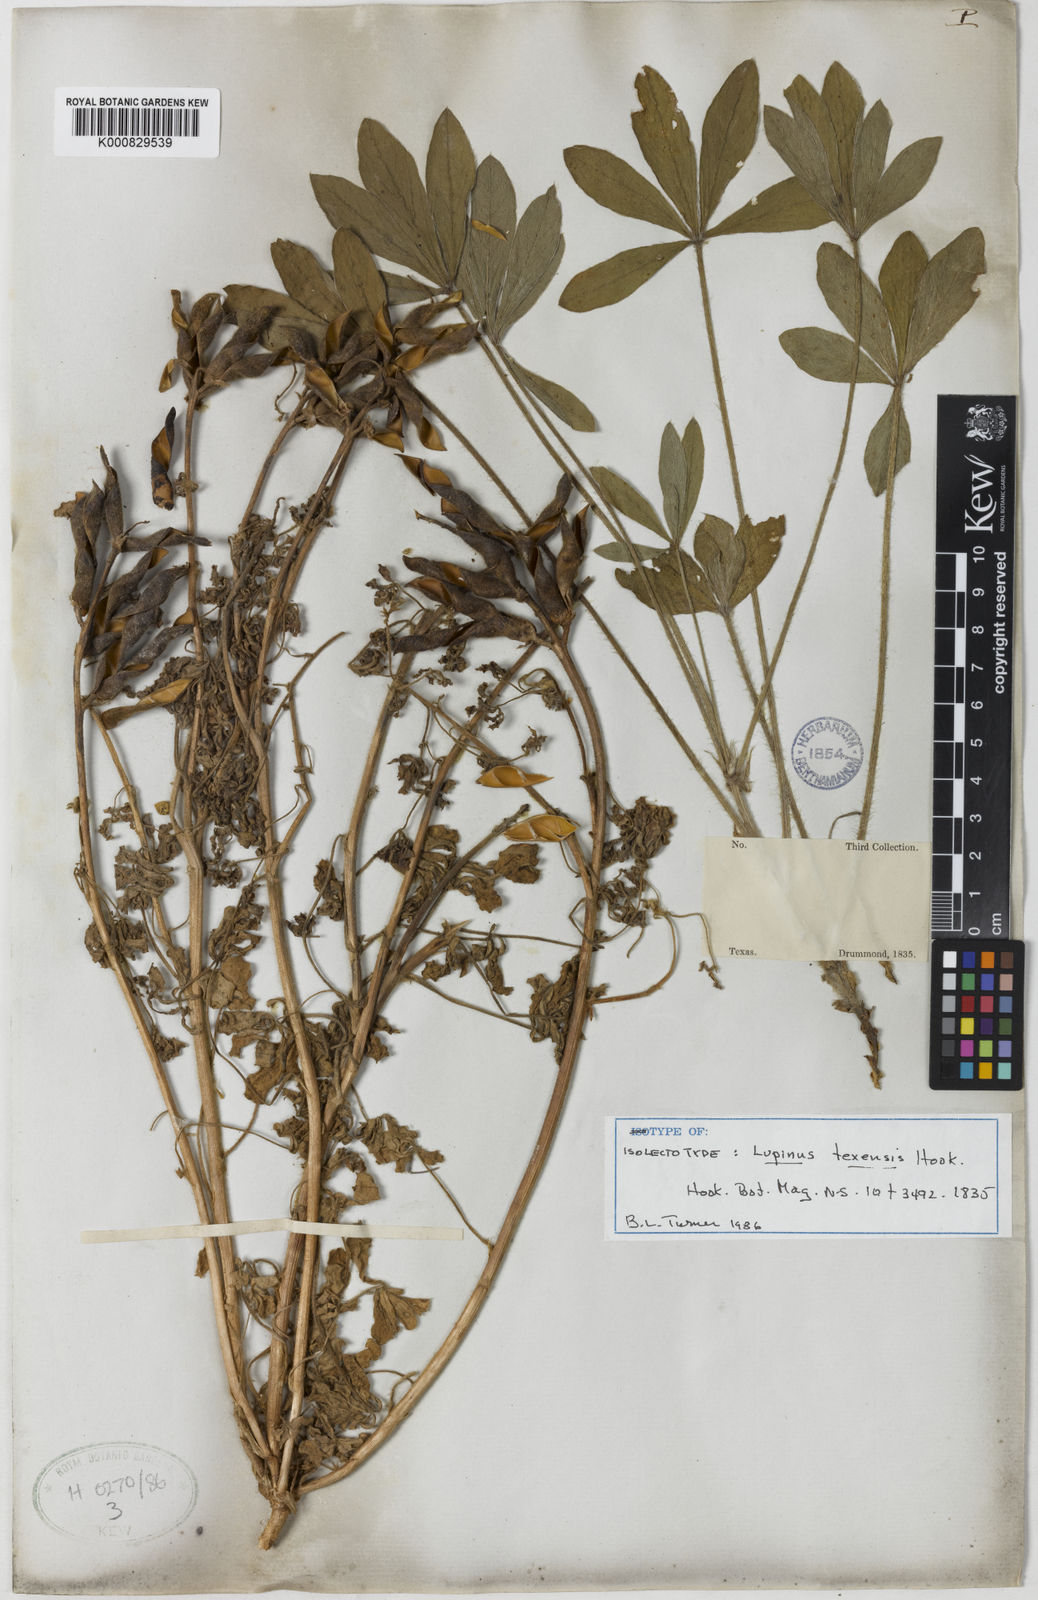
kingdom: Plantae
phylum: Tracheophyta
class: Magnoliopsida
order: Fabales
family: Fabaceae
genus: Lupinus
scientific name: Lupinus texensis
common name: Texas bluebonnet
